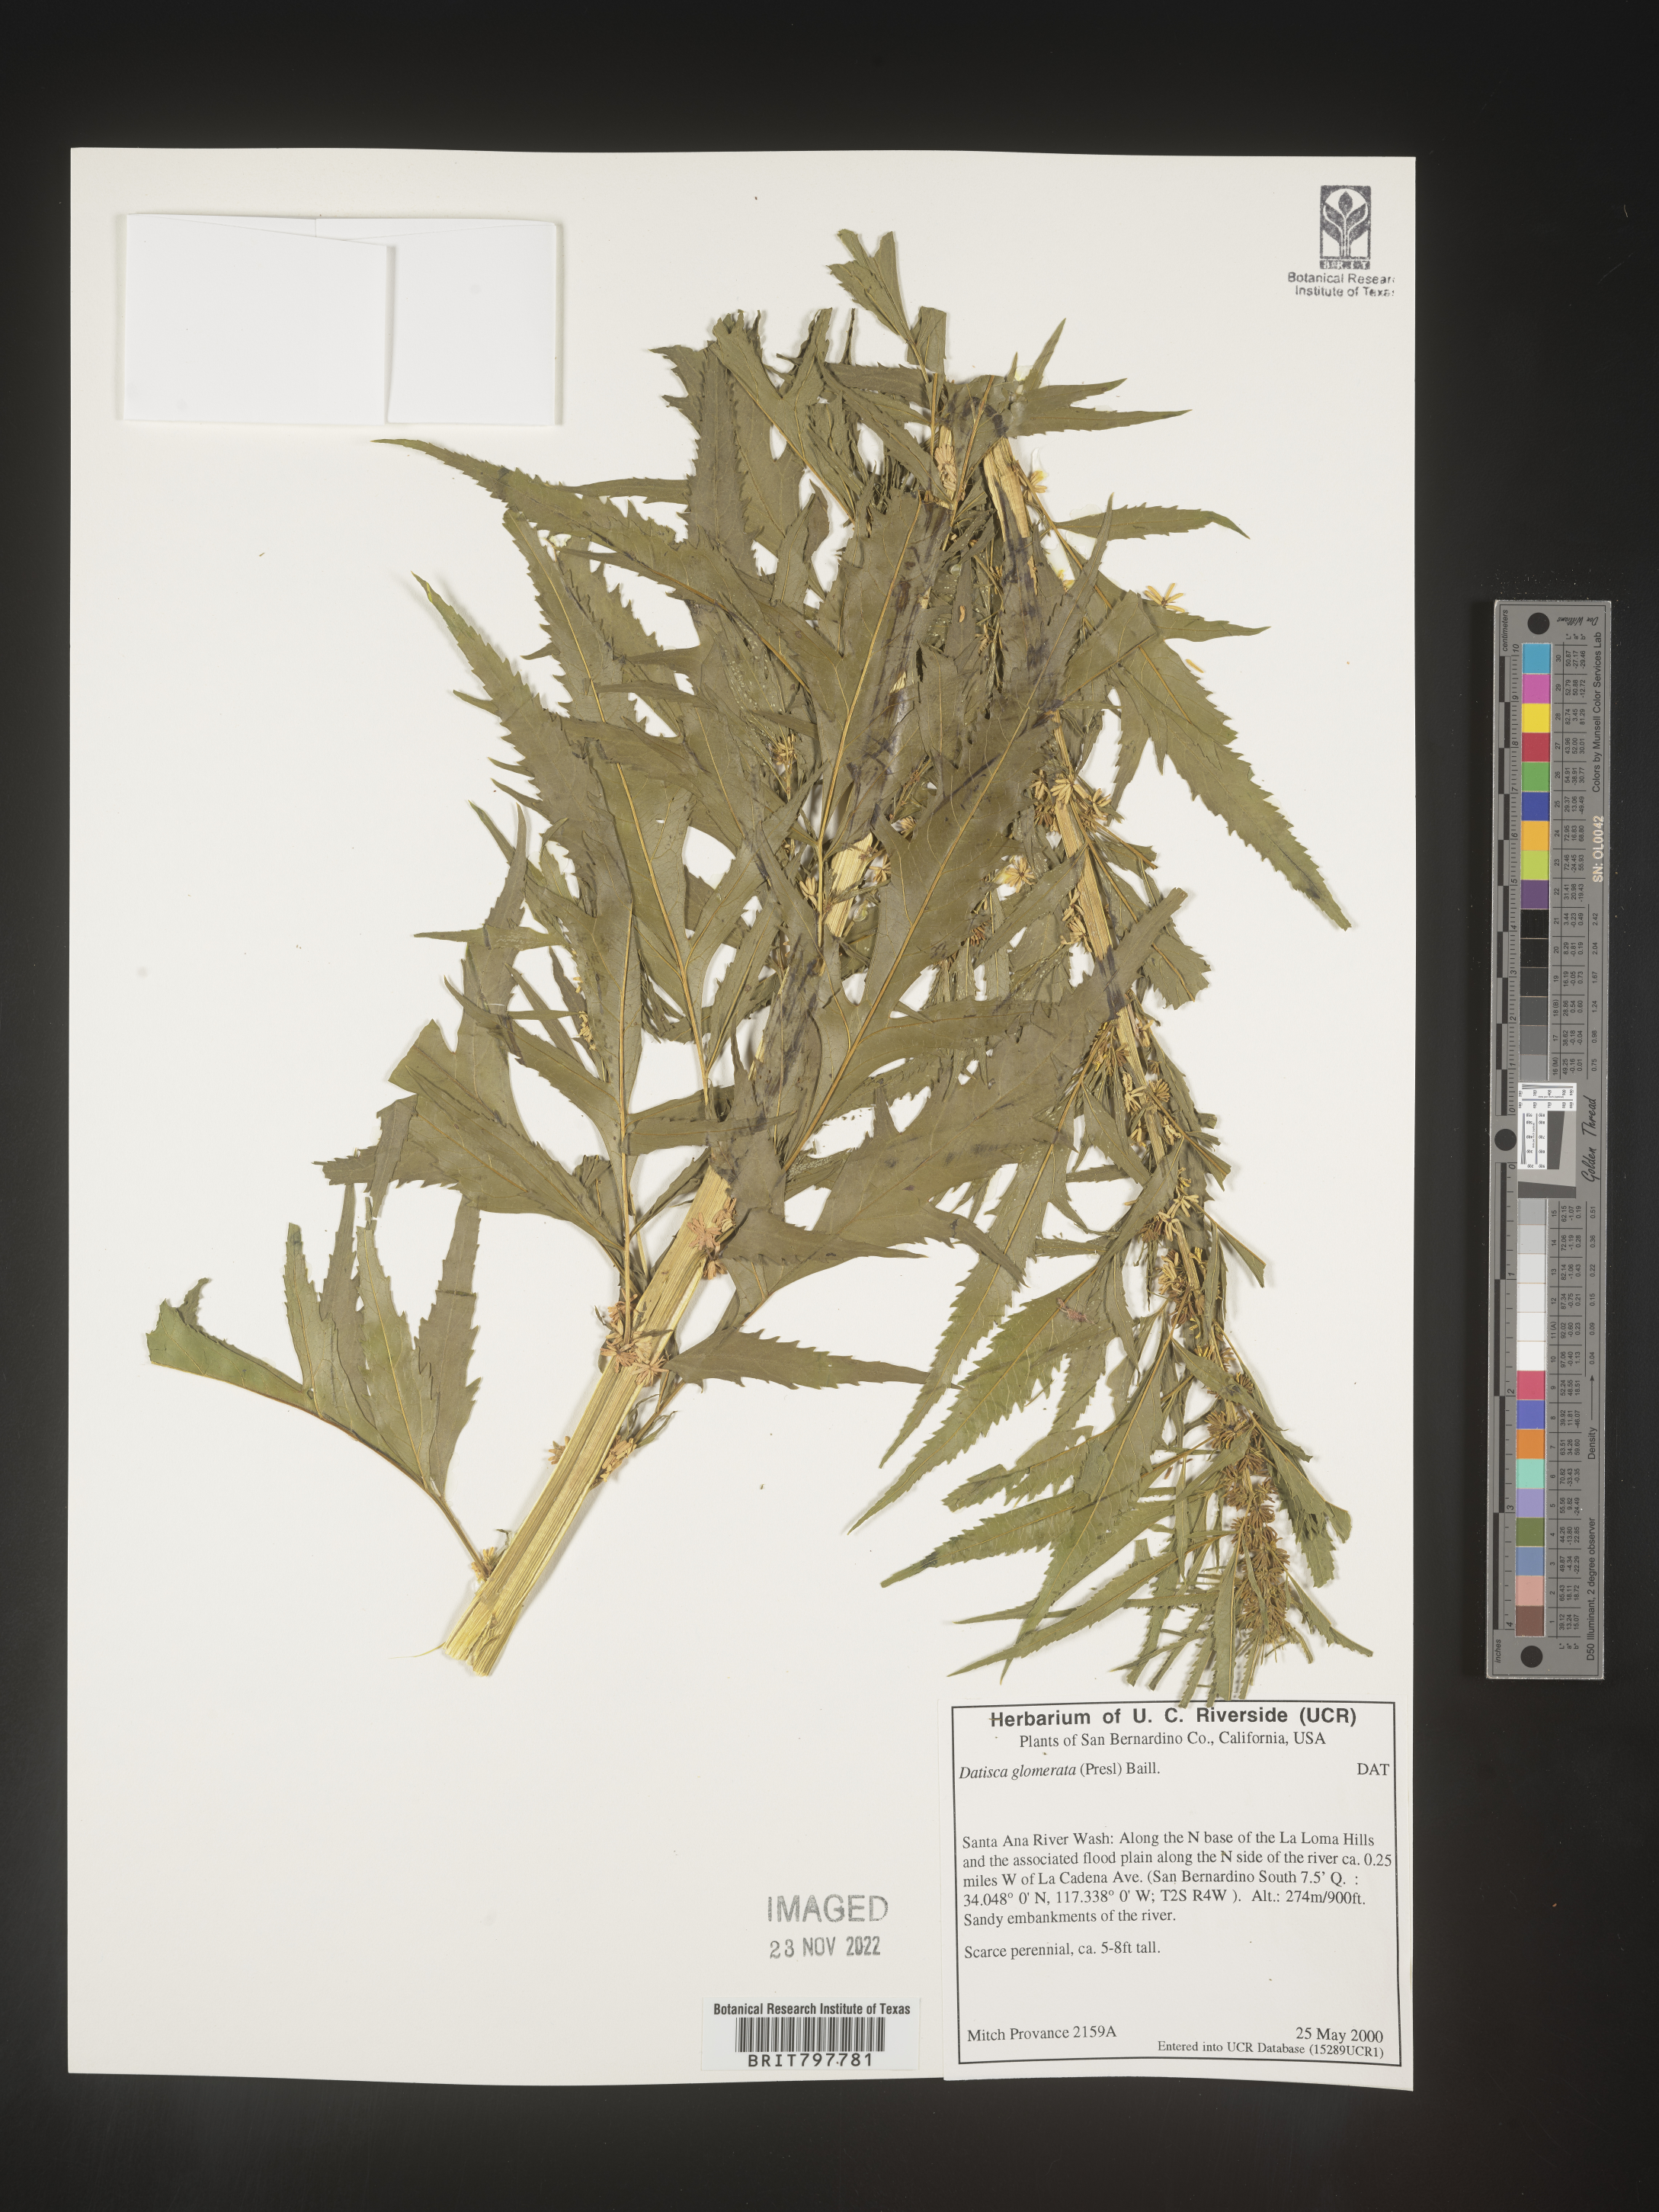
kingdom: Plantae
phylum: Tracheophyta
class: Magnoliopsida
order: Cucurbitales
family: Datiscaceae
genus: Datisca
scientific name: Datisca
